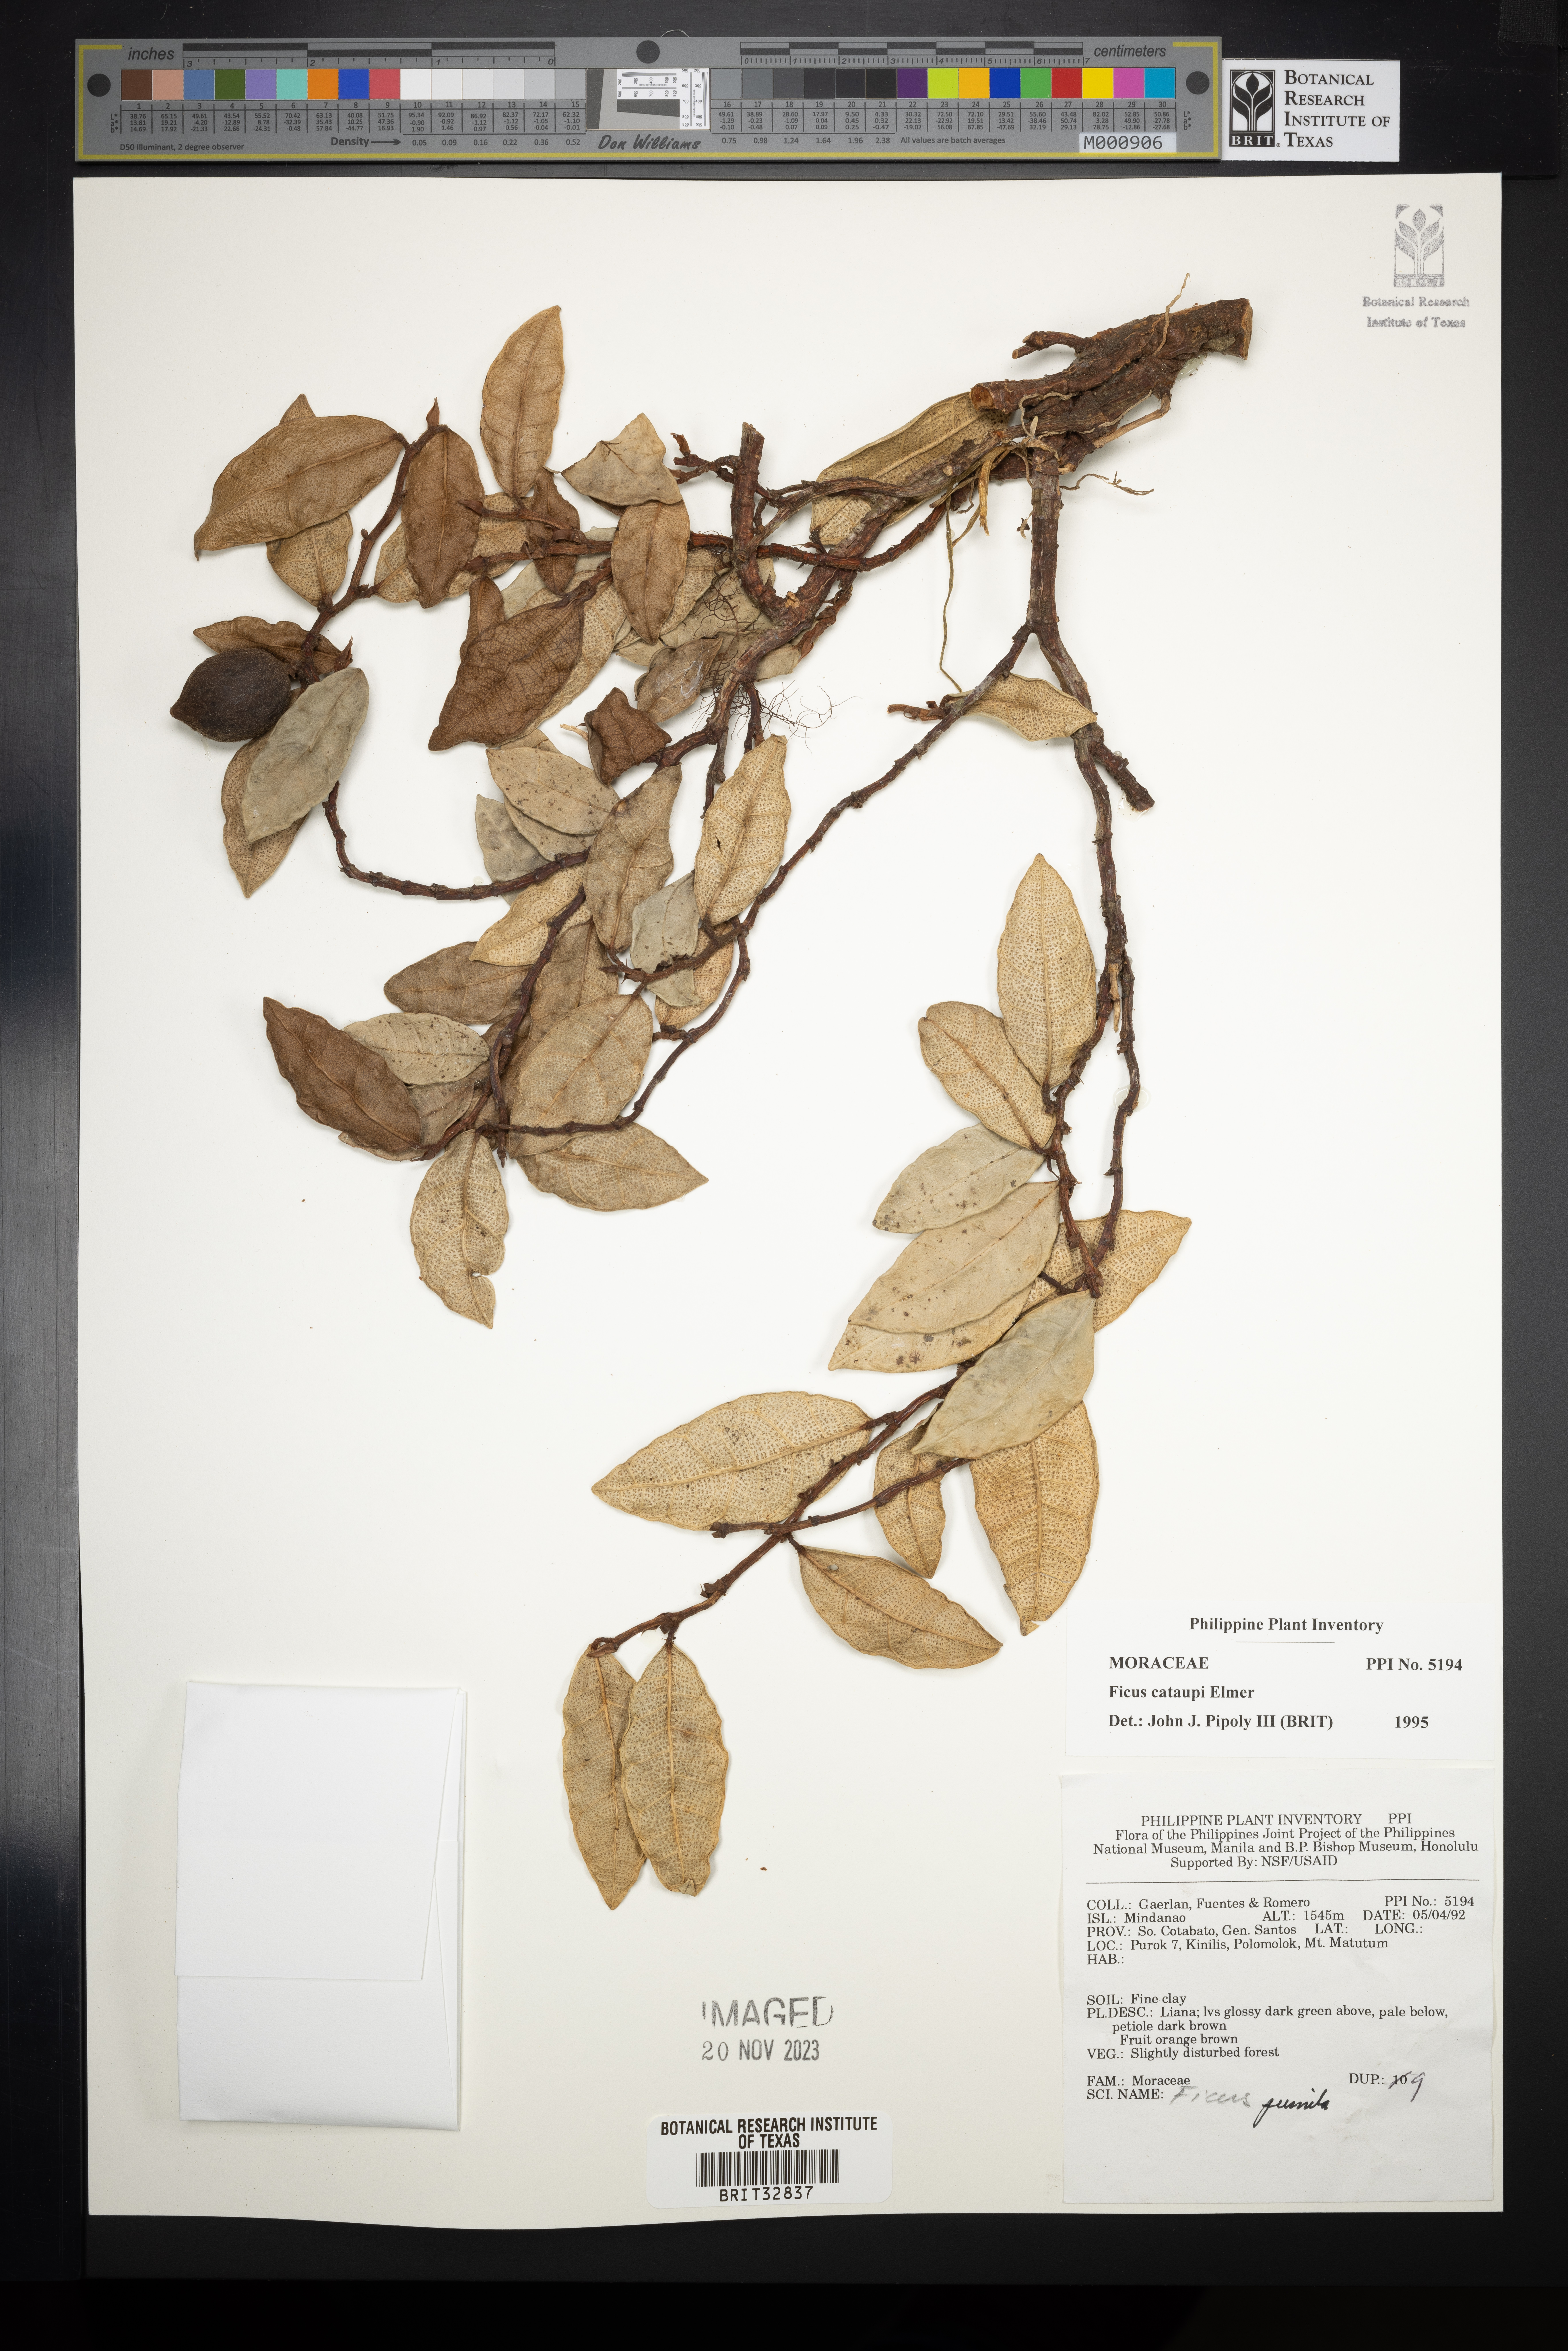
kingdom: Plantae
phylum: Tracheophyta
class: Magnoliopsida
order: Rosales
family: Moraceae
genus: Ficus
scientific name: Ficus cataupi
